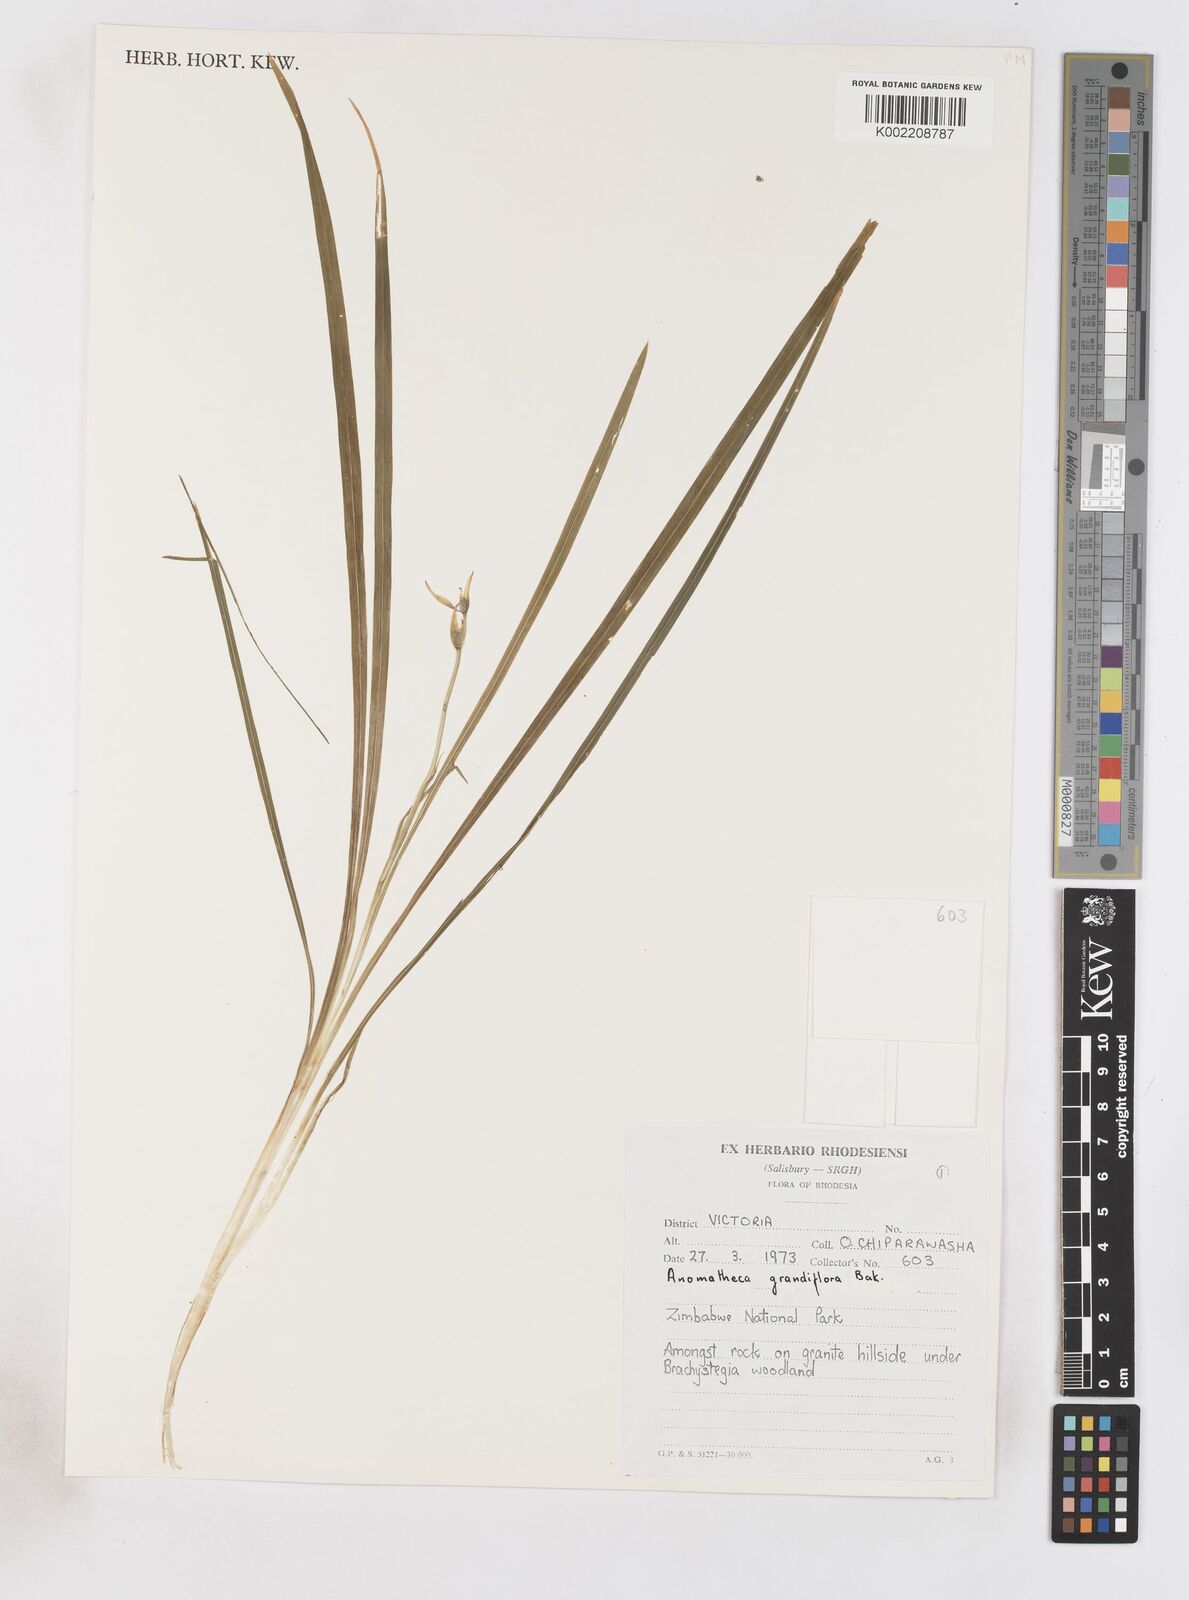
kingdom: Plantae
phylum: Tracheophyta
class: Liliopsida
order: Asparagales
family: Iridaceae
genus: Freesia
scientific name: Freesia grandiflora
